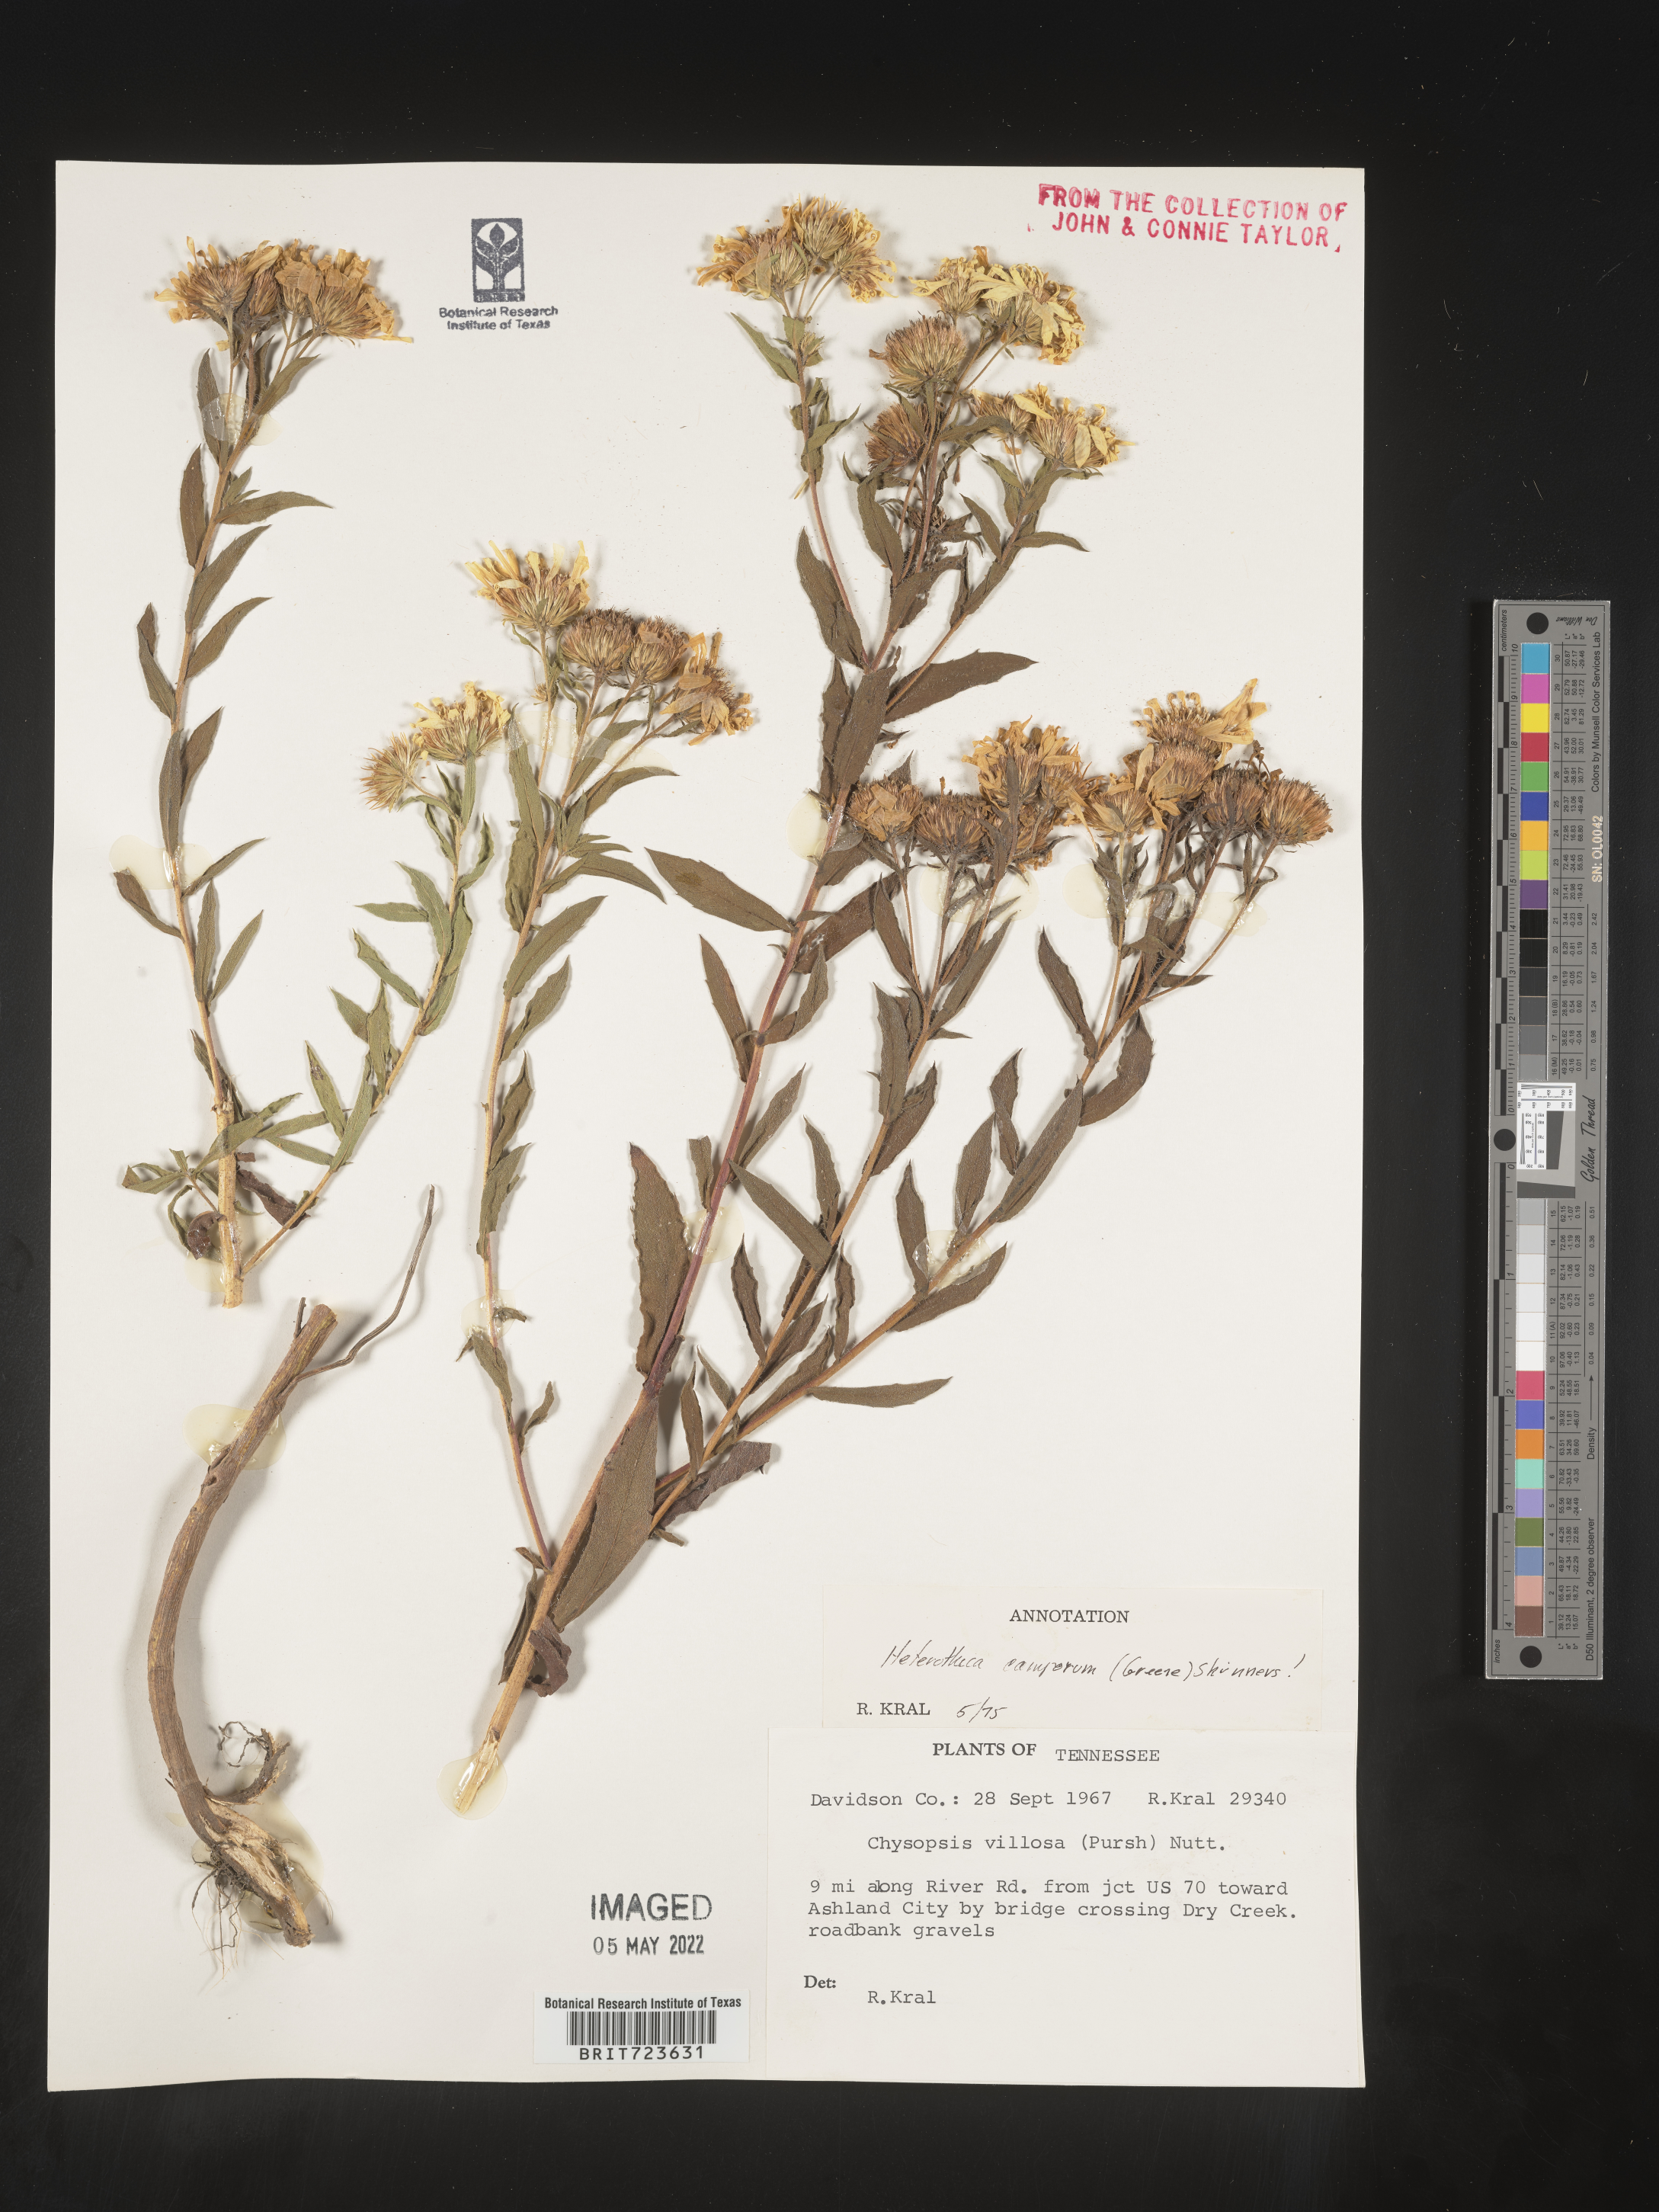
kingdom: Plantae
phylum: Tracheophyta
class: Magnoliopsida
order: Asterales
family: Asteraceae
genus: Heterotheca
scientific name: Heterotheca camporum
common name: Prairie golden-aster
